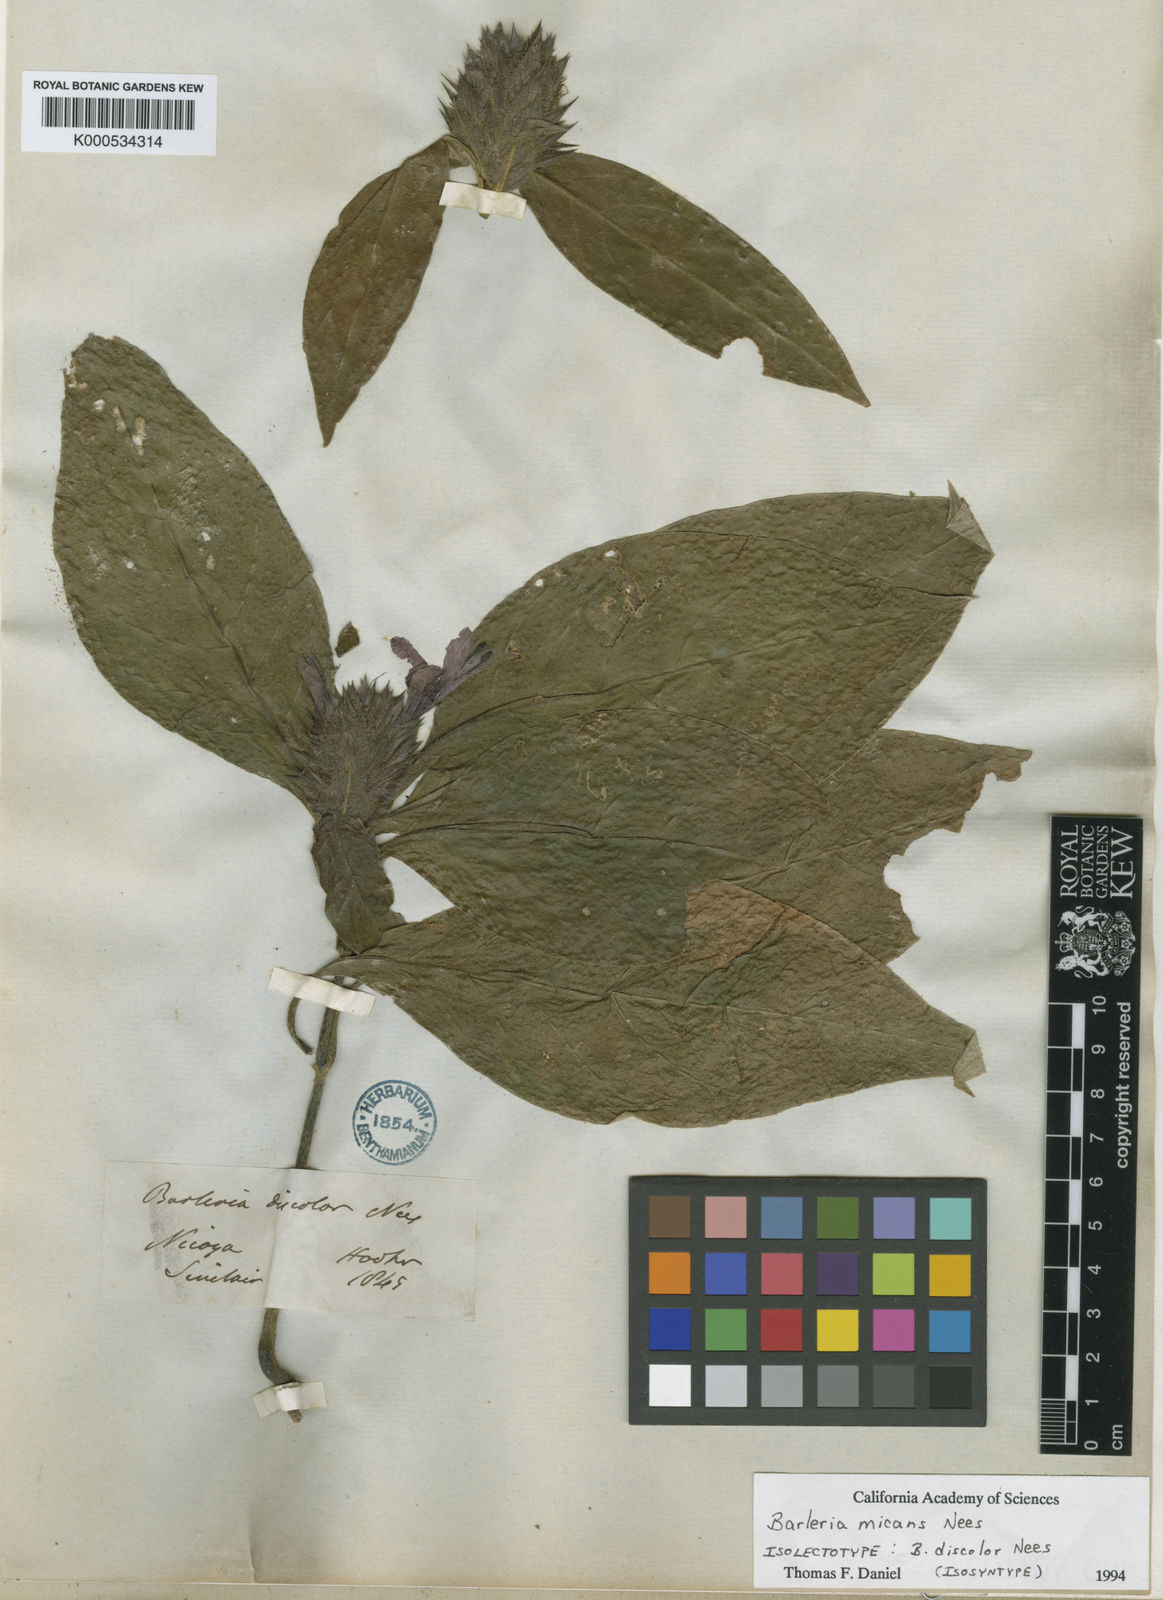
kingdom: Plantae
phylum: Tracheophyta
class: Magnoliopsida
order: Lamiales
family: Acanthaceae
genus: Barleria
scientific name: Barleria oenotheroides
